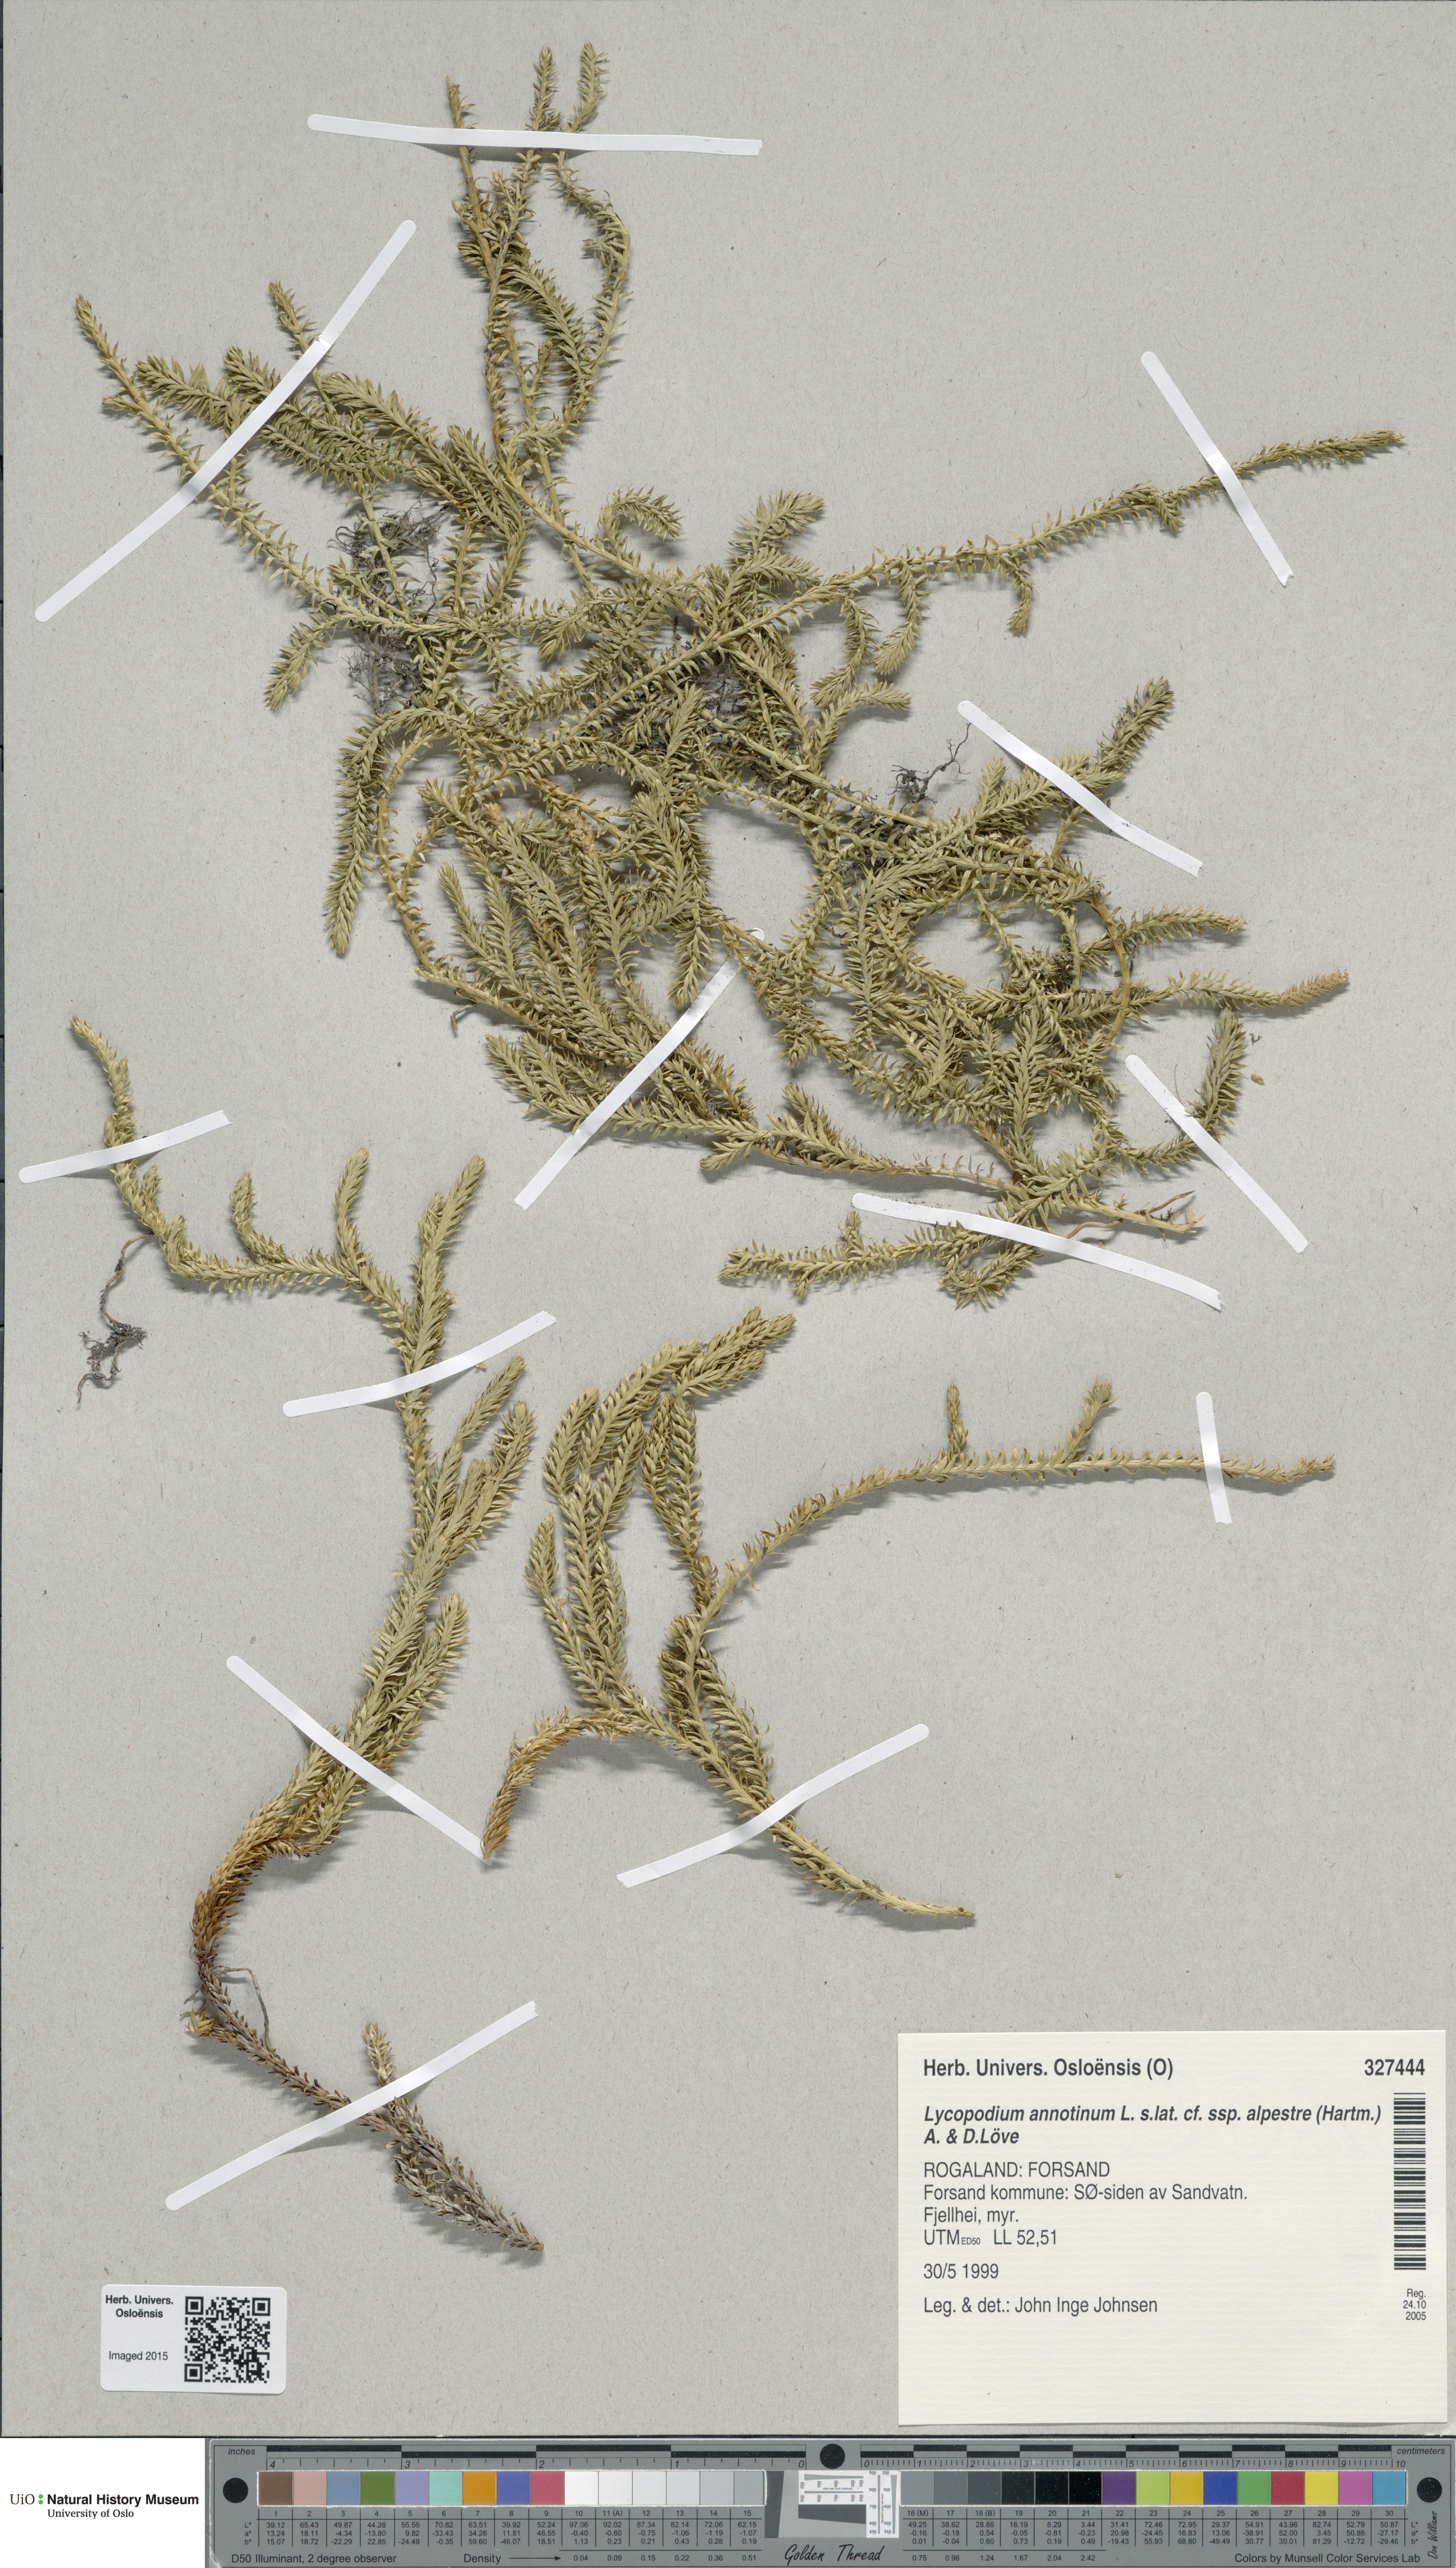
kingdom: Plantae
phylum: Tracheophyta
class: Lycopodiopsida
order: Lycopodiales
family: Lycopodiaceae
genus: Spinulum
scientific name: Spinulum annotinum
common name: Interrupted club-moss
